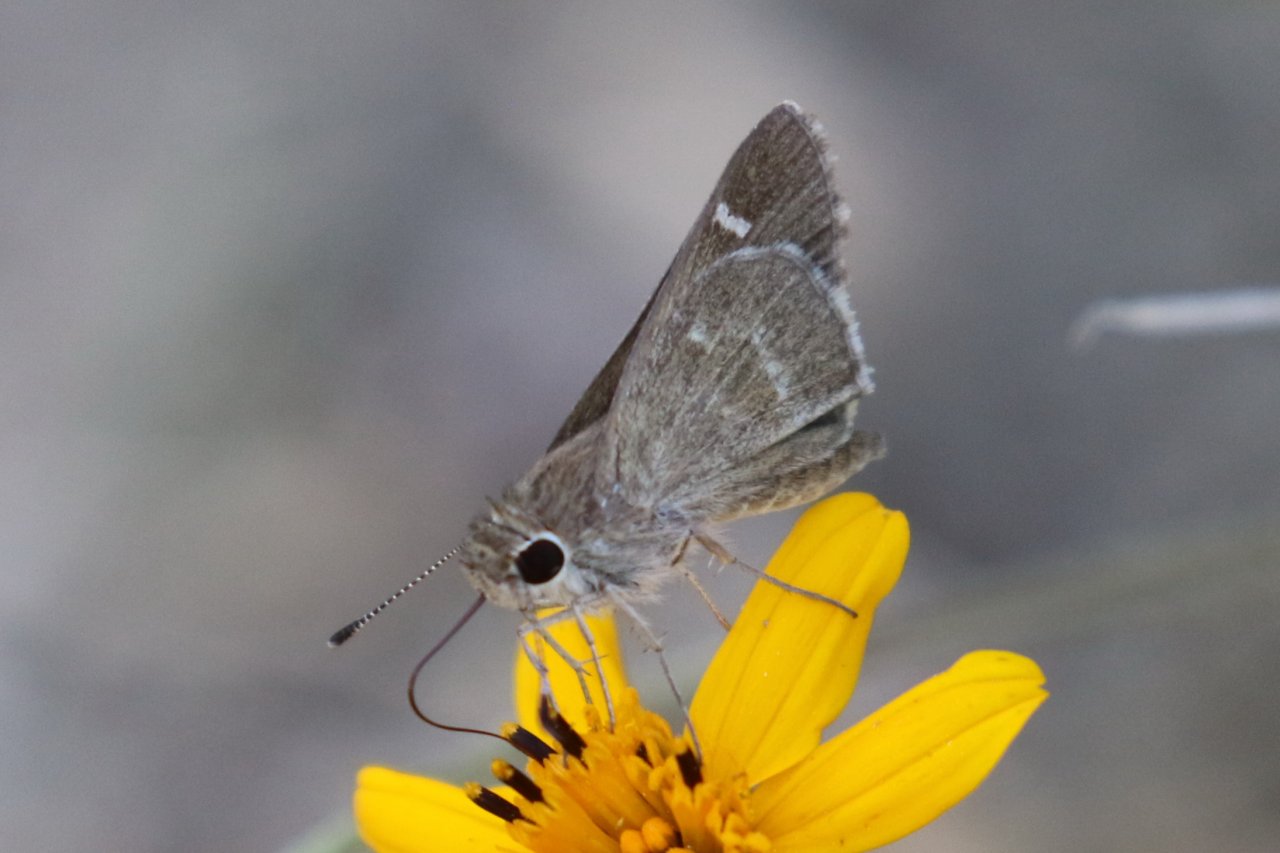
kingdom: Animalia
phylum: Arthropoda
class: Insecta
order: Lepidoptera
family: Hesperiidae
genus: Lerodea
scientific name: Lerodea arabus
